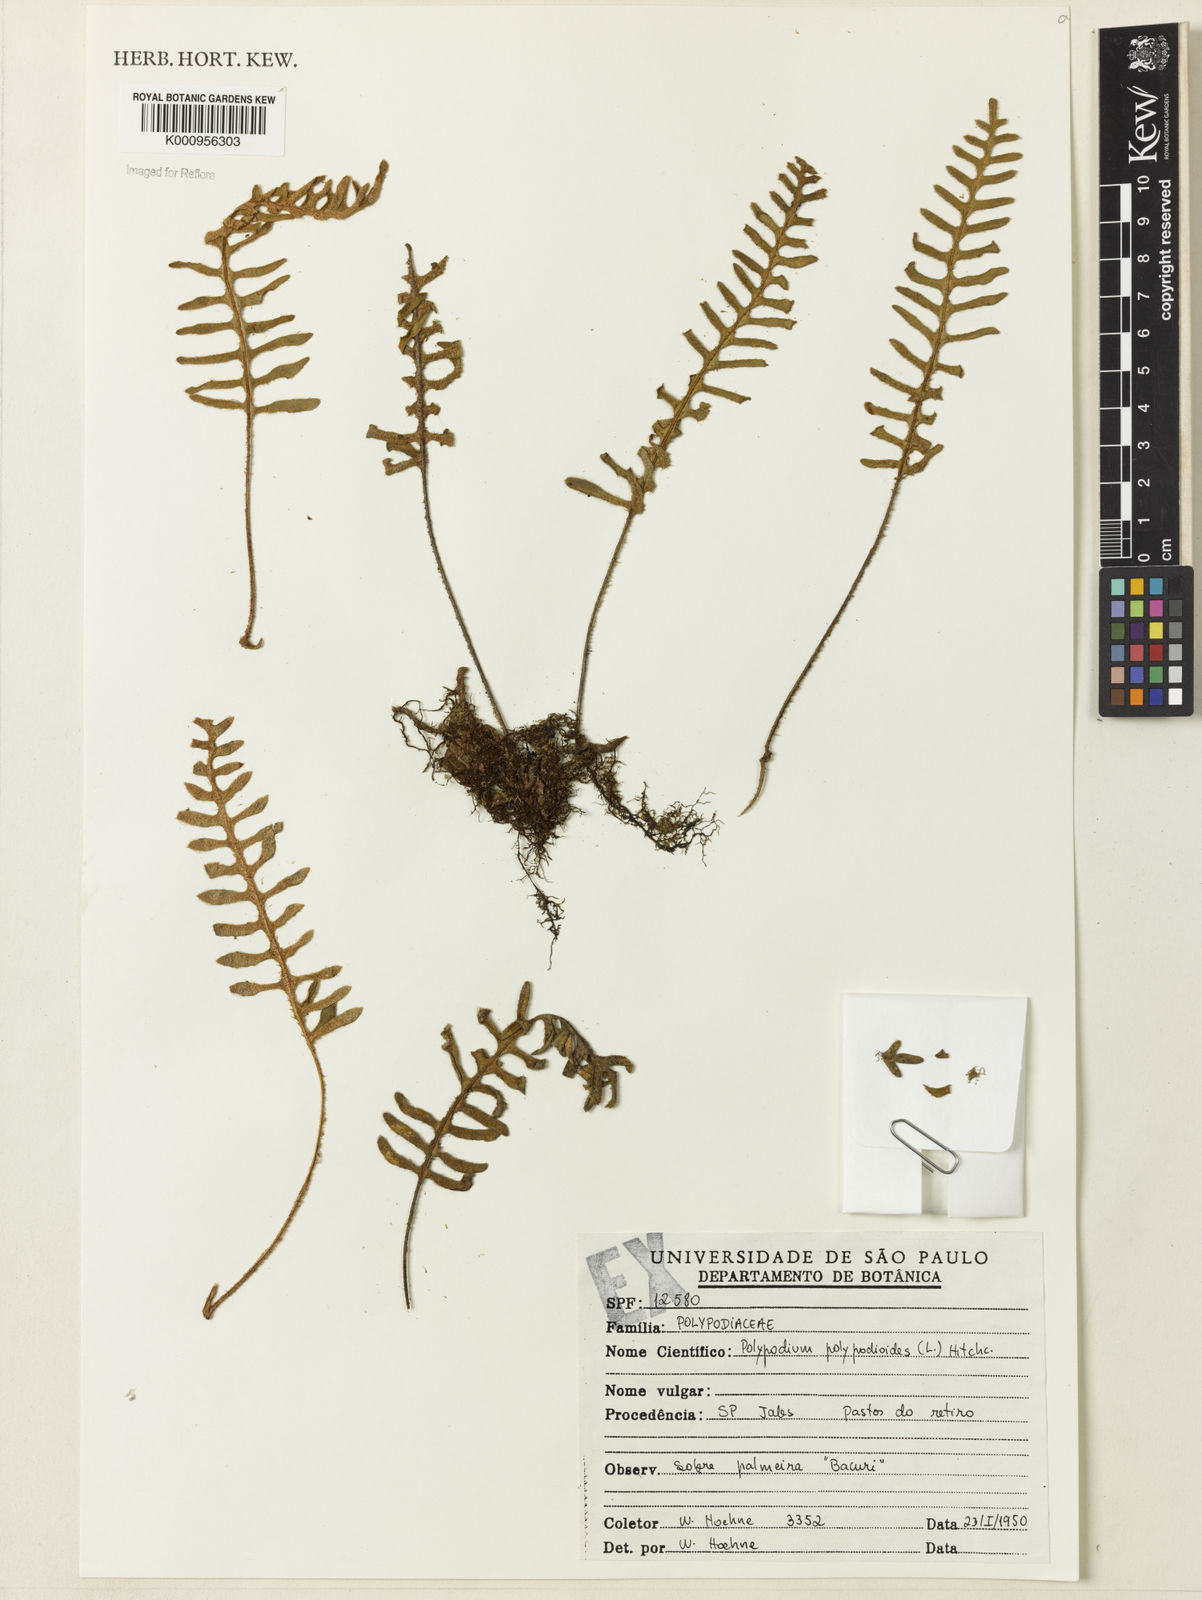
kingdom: Plantae
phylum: Tracheophyta
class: Polypodiopsida
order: Polypodiales
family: Polypodiaceae
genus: Pleopeltis
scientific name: Pleopeltis polypodioides
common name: Resurrection fern
